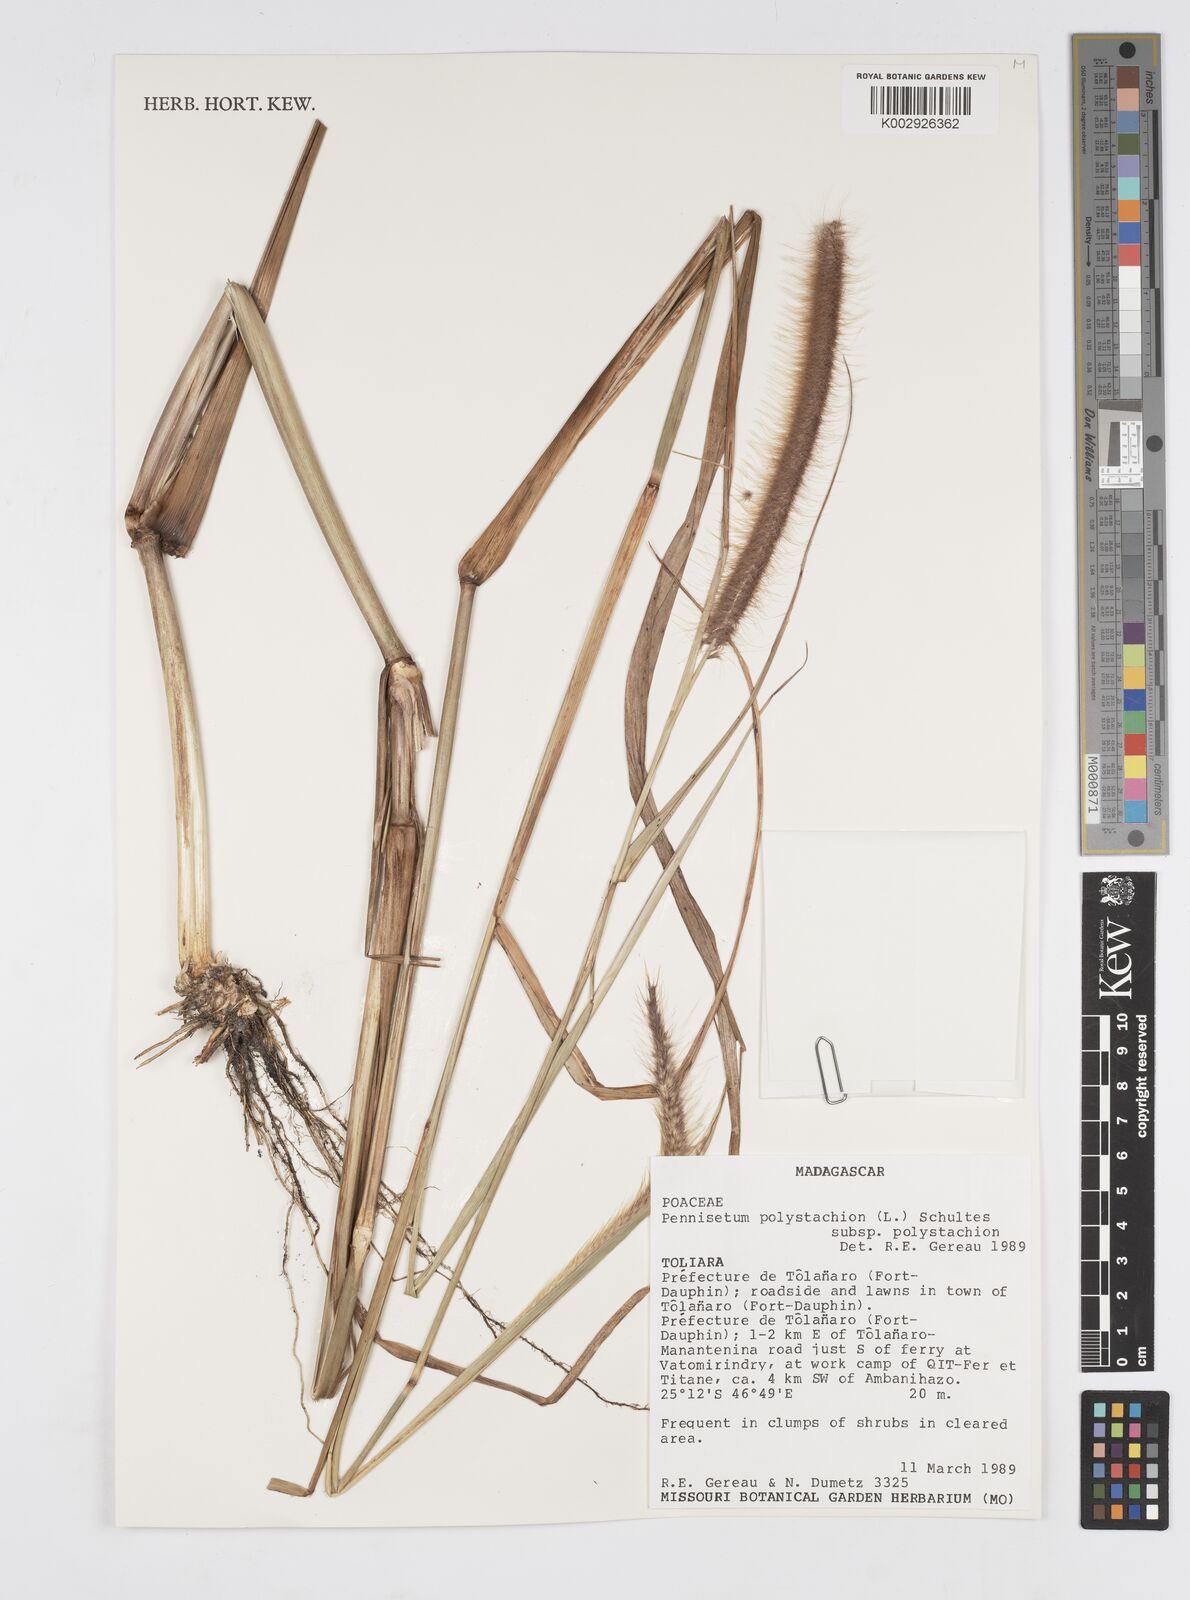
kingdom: Plantae
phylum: Tracheophyta
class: Liliopsida
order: Poales
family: Poaceae
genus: Setaria
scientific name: Setaria parviflora
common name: Knotroot bristle-grass
